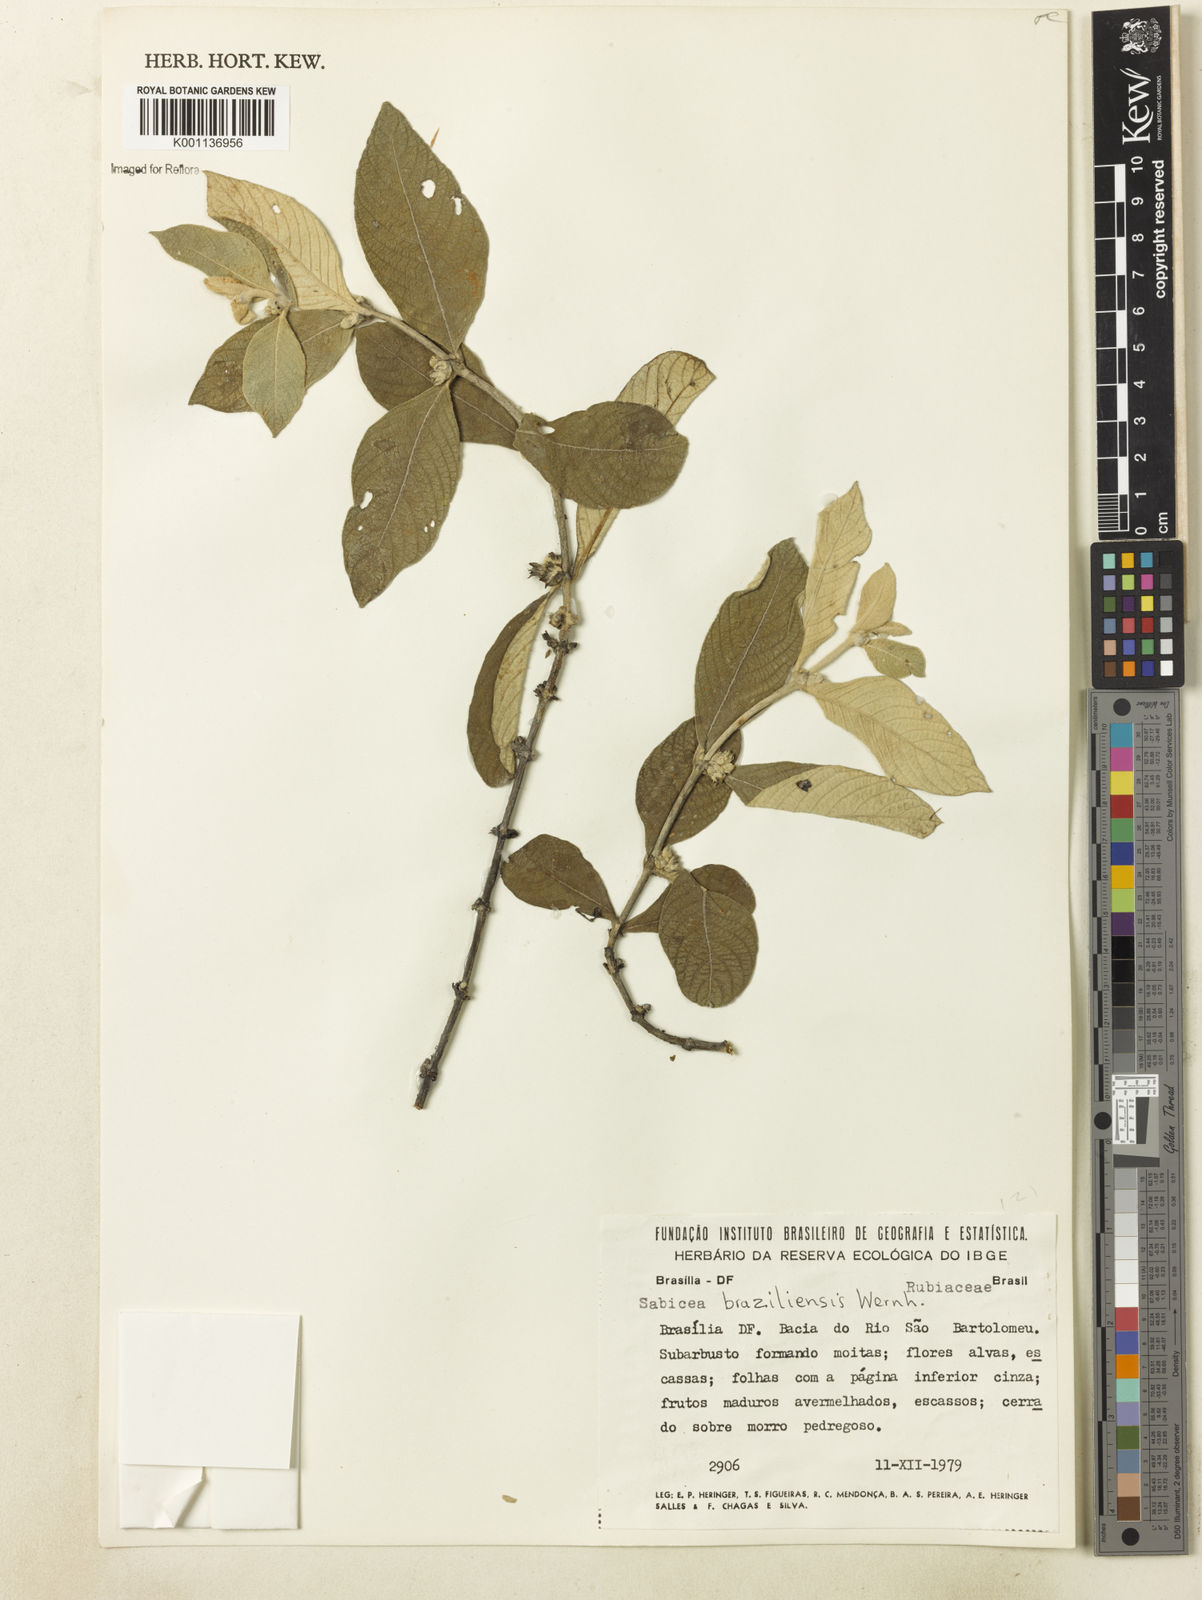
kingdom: Plantae
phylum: Tracheophyta
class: Magnoliopsida
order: Gentianales
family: Rubiaceae
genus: Sabicea
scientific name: Sabicea brasiliensis
